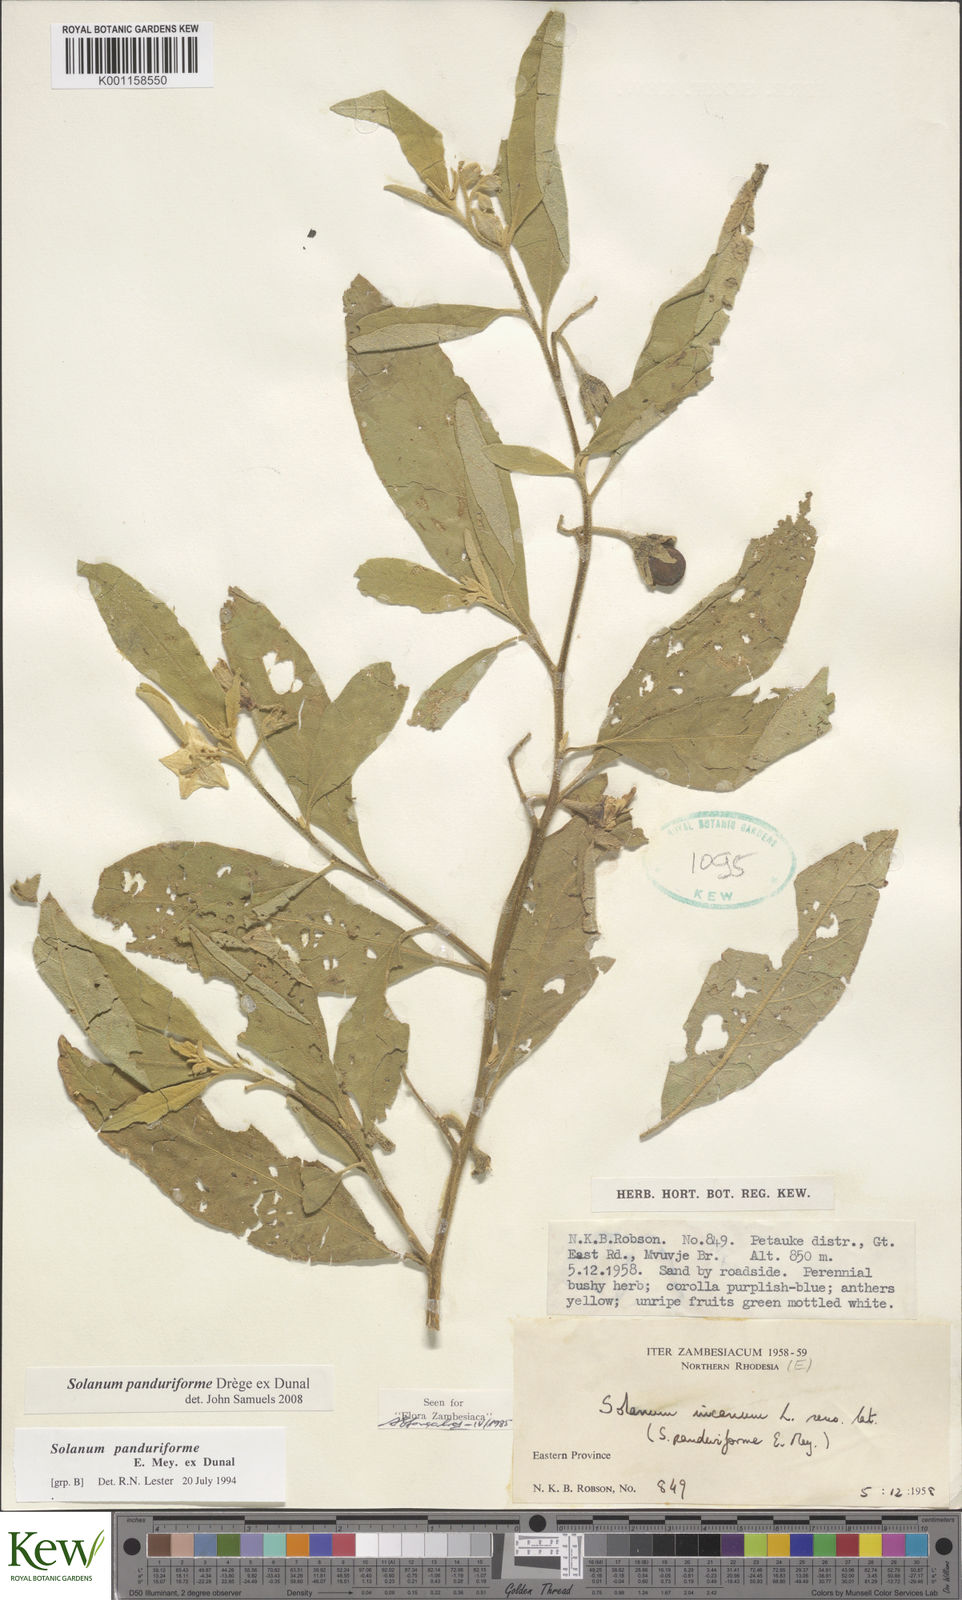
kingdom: Plantae
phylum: Tracheophyta
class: Magnoliopsida
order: Solanales
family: Solanaceae
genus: Solanum
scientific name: Solanum campylacanthum
